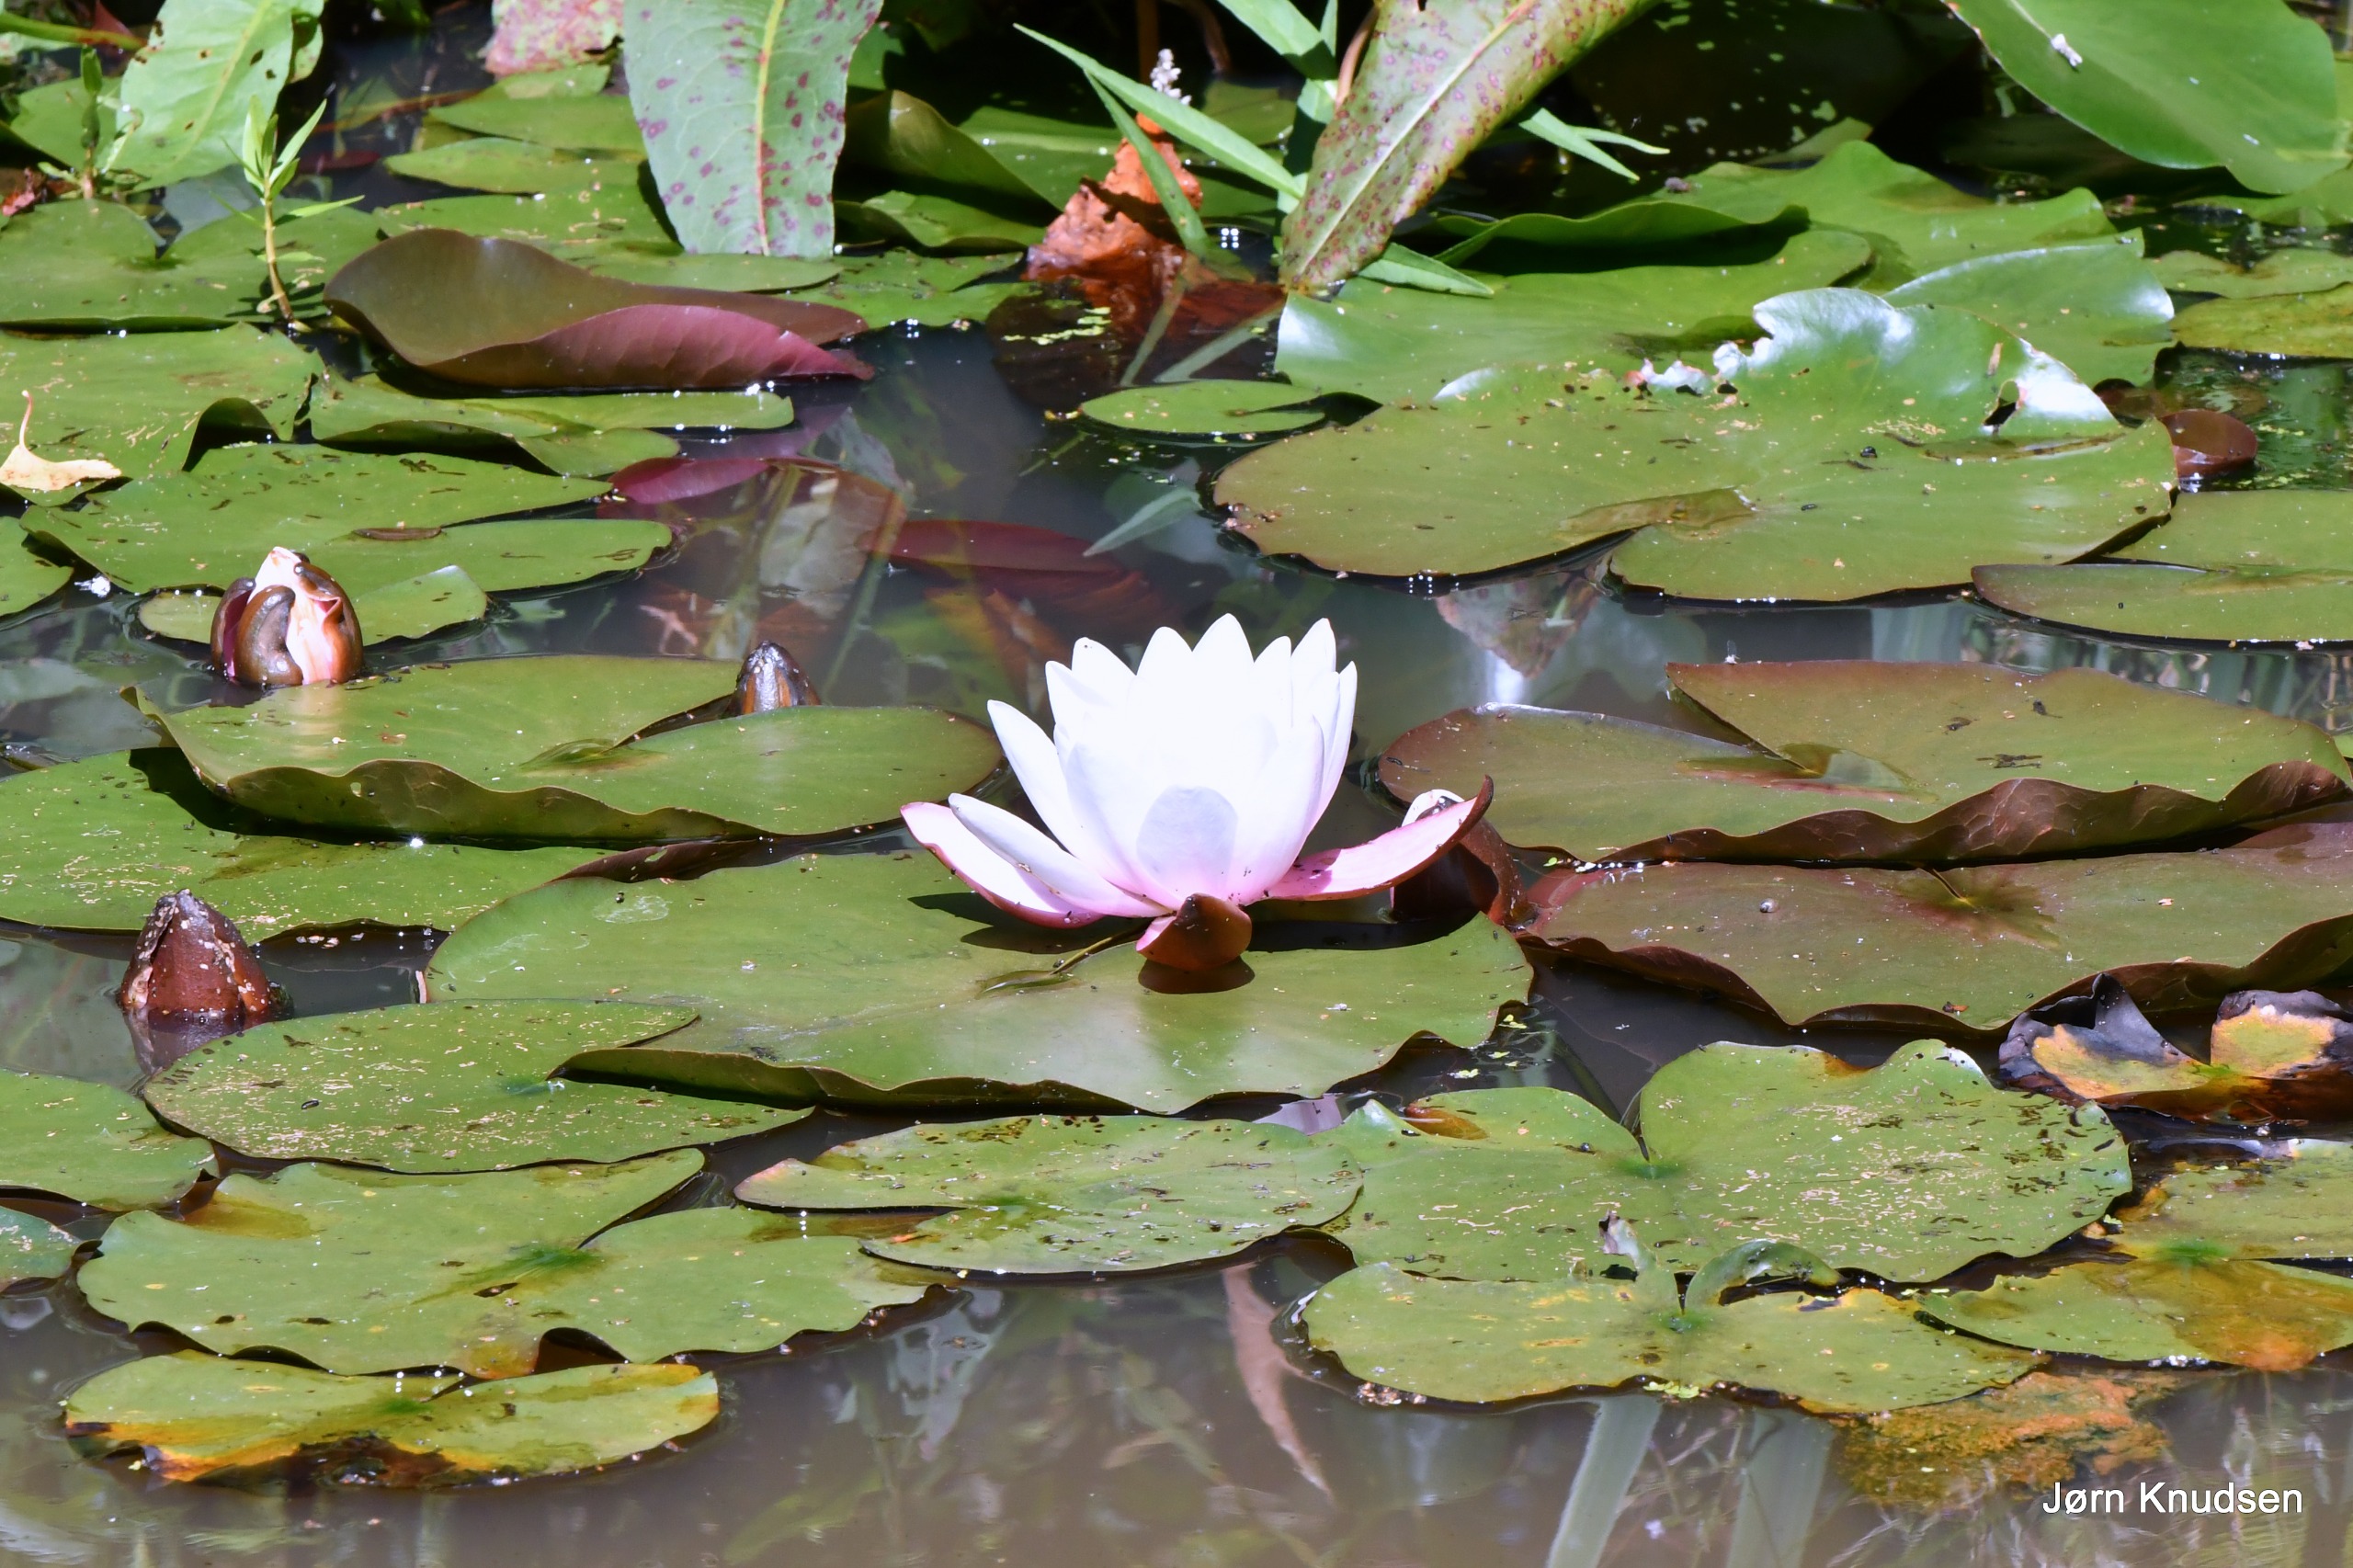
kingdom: Plantae
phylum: Tracheophyta
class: Magnoliopsida
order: Nymphaeales
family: Nymphaeaceae
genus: Nymphaea
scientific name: Nymphaea alba
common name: Hvid åkande
